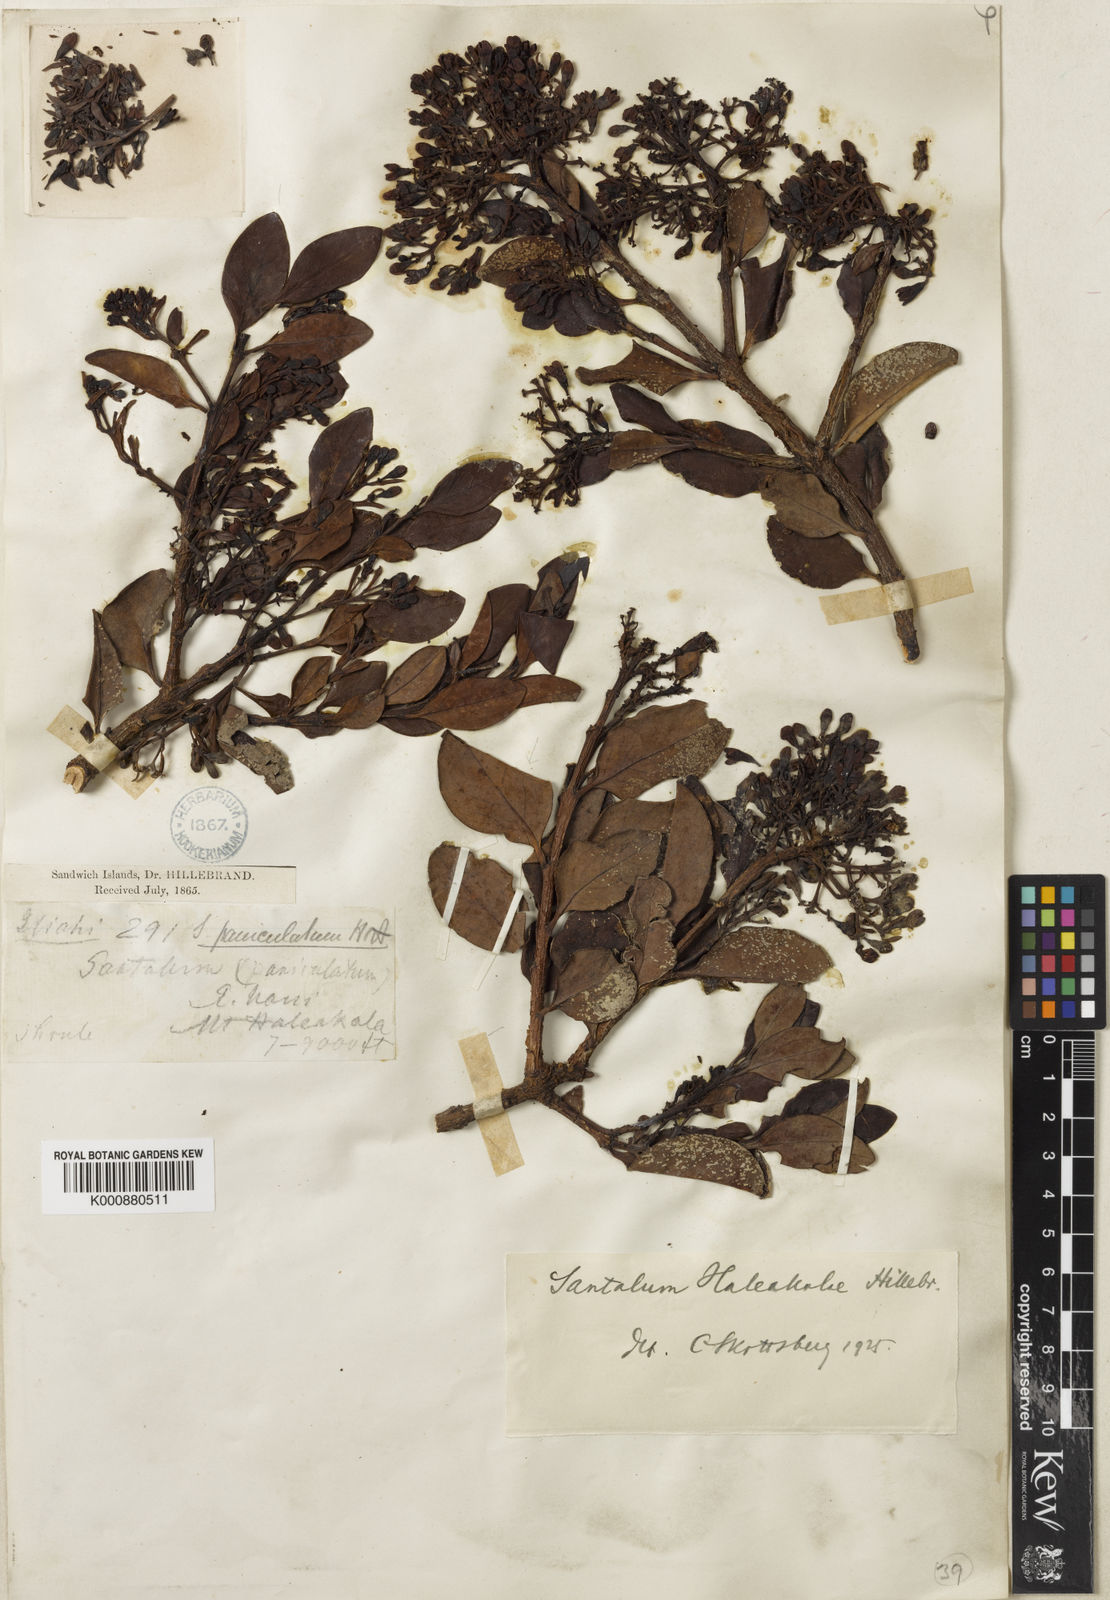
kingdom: Plantae
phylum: Tracheophyta
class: Magnoliopsida
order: Santalales
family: Santalaceae
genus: Santalum
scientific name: Santalum haleakalae
